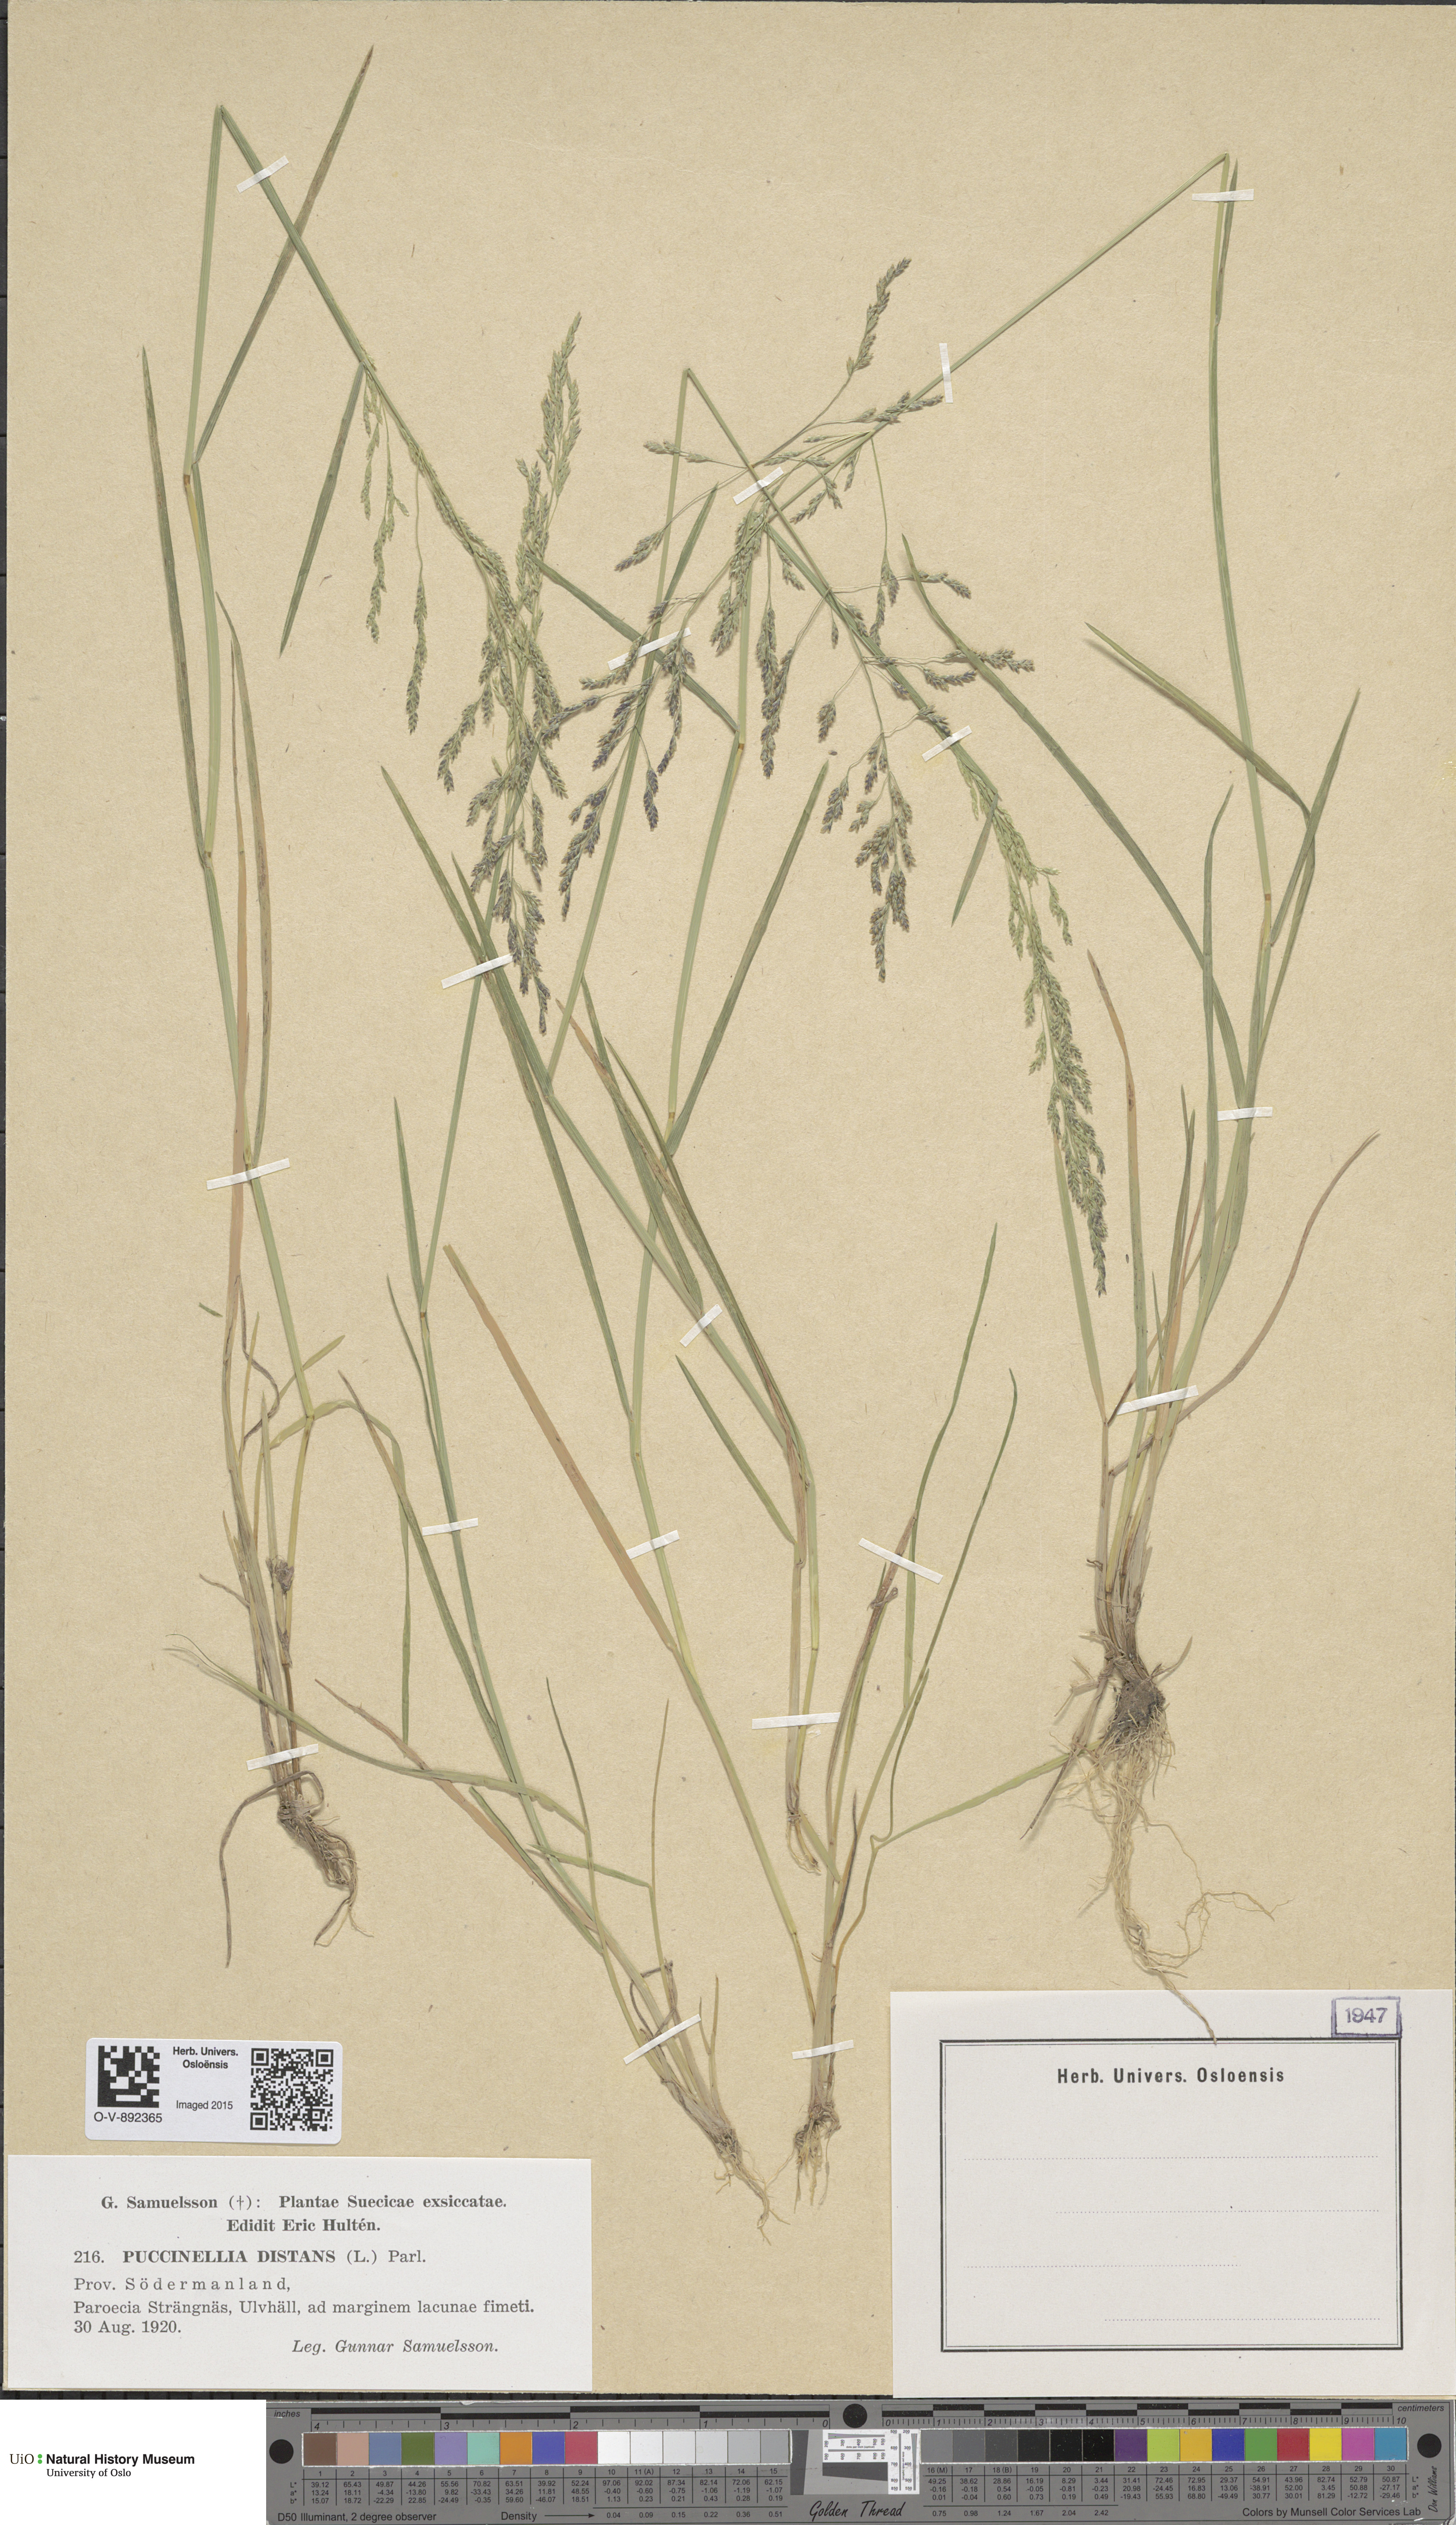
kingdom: Plantae
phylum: Tracheophyta
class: Liliopsida
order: Poales
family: Poaceae
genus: Puccinellia
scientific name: Puccinellia distans
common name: Weeping alkaligrass
